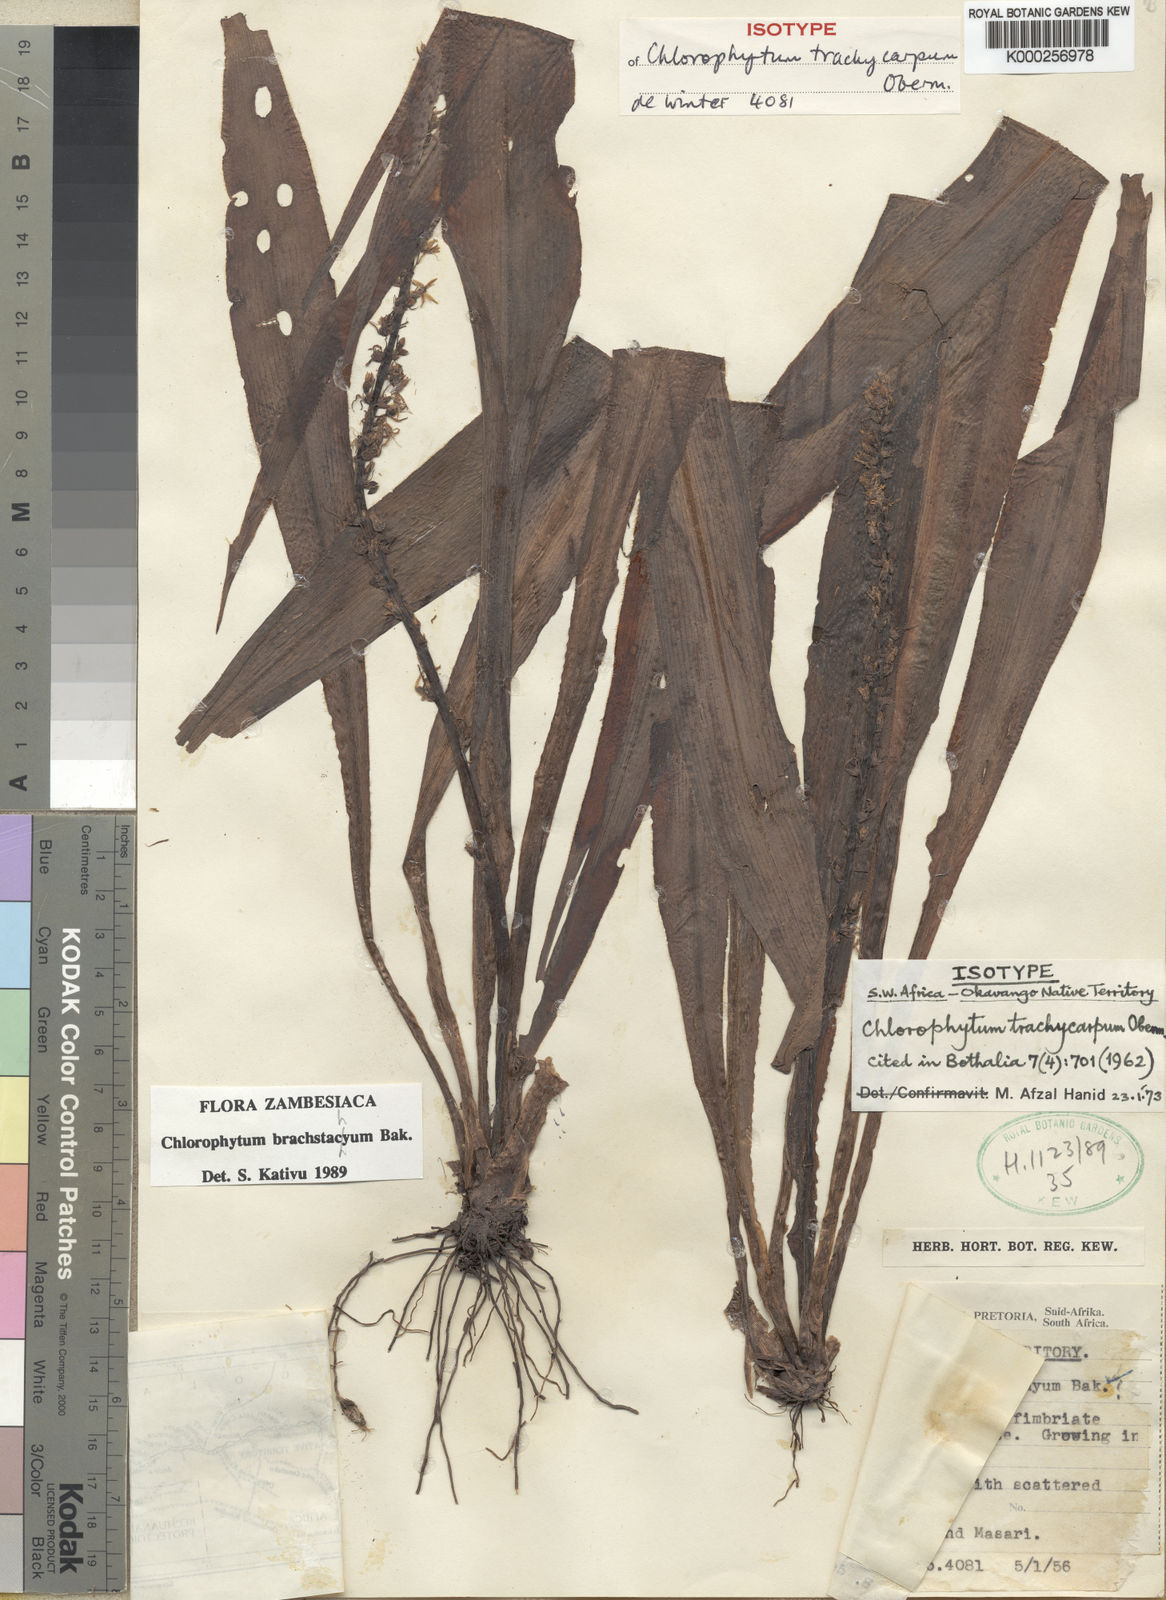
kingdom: Plantae
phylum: Tracheophyta
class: Liliopsida
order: Asparagales
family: Asparagaceae
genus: Chlorophytum
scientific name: Chlorophytum brachystachyum
